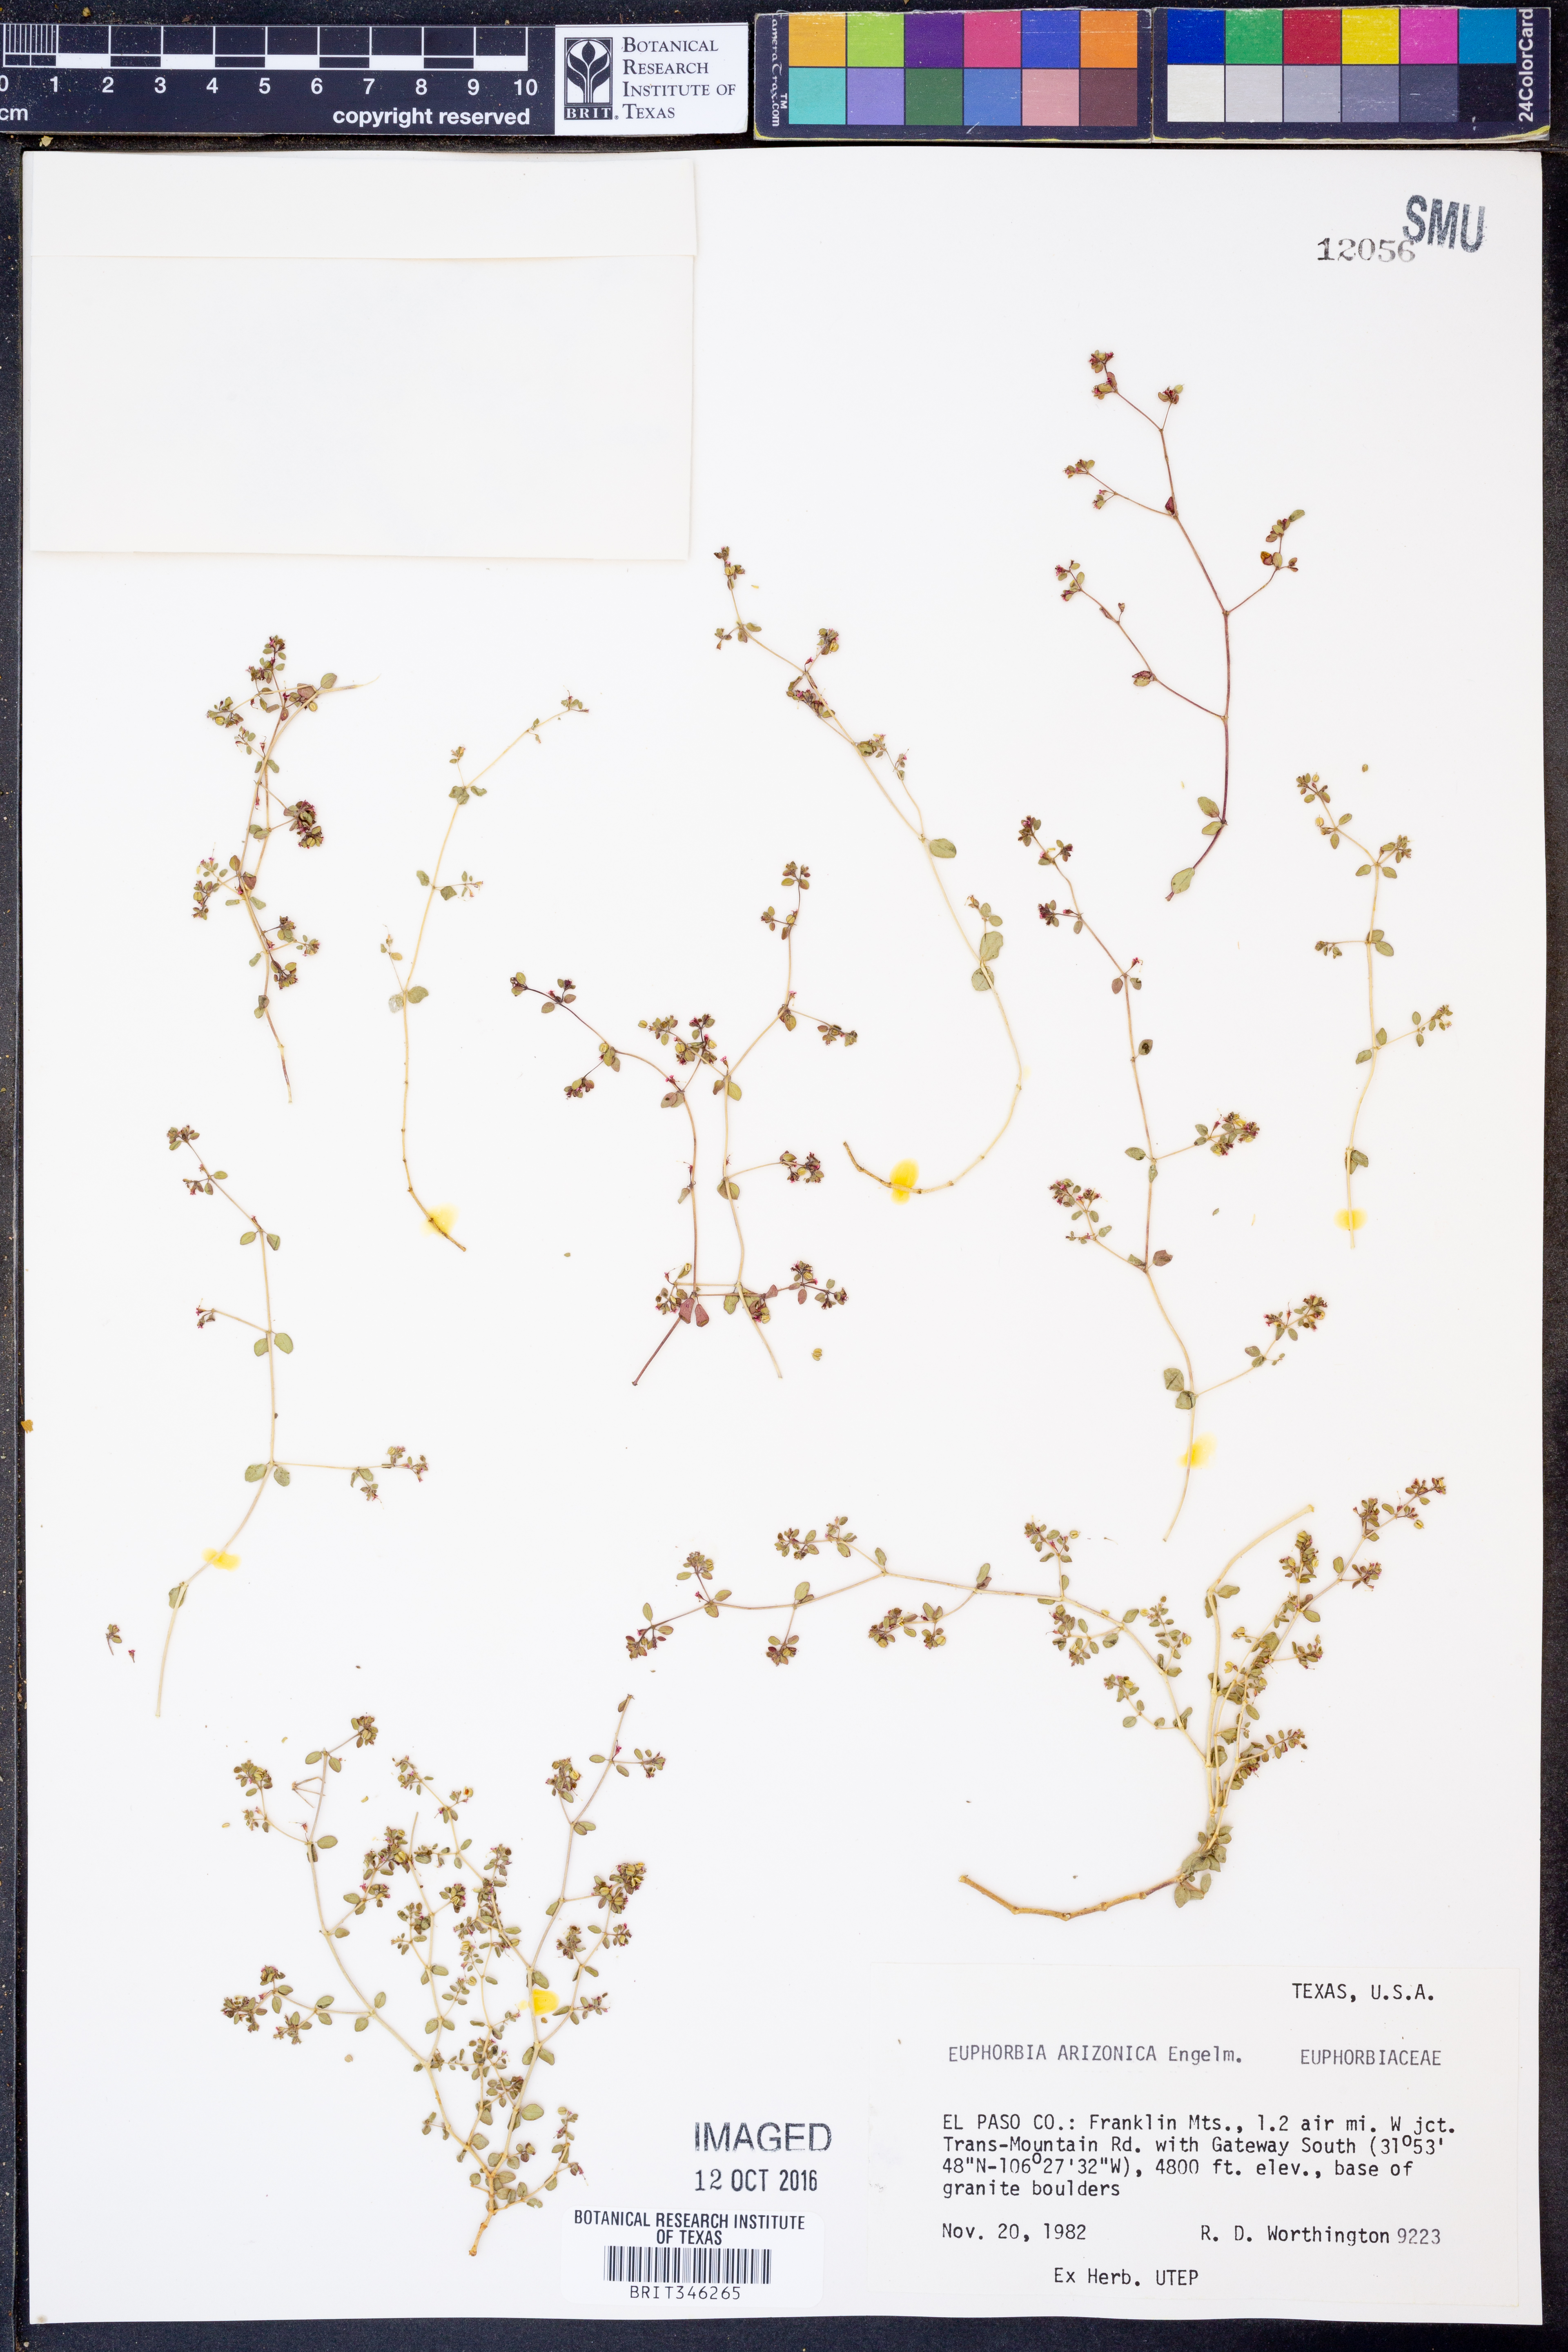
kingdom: Plantae
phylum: Tracheophyta
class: Magnoliopsida
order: Malpighiales
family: Euphorbiaceae
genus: Euphorbia
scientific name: Euphorbia arizonica
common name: Arizona spurge
